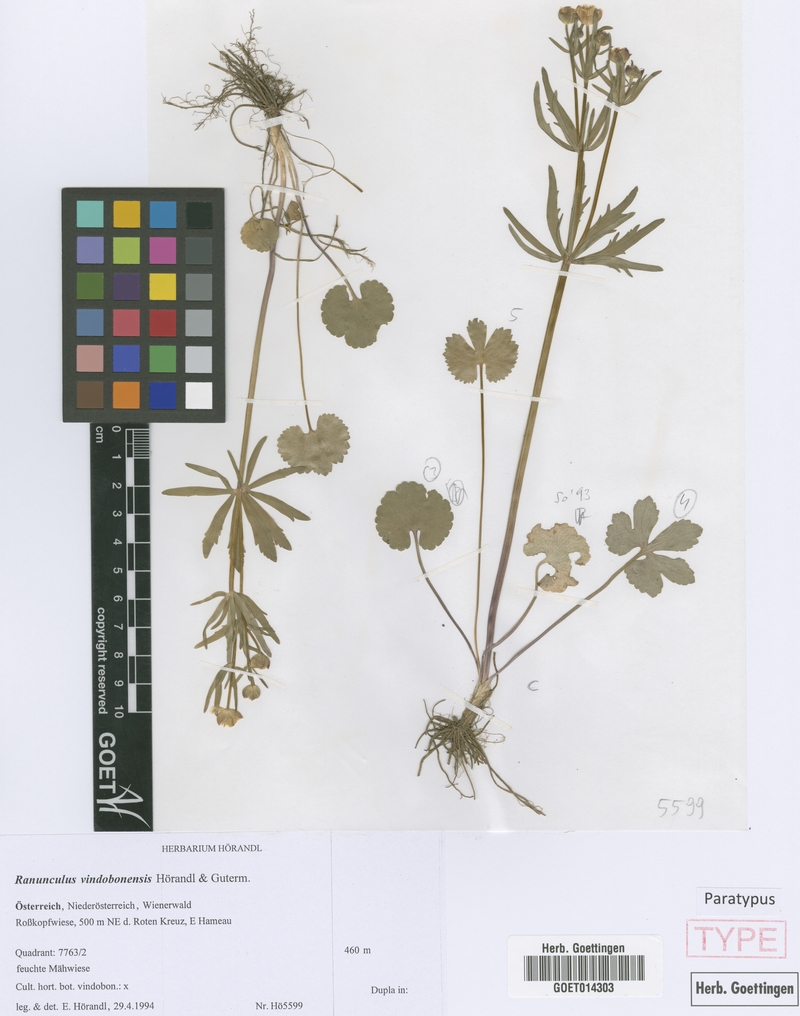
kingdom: Plantae
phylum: Tracheophyta
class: Magnoliopsida
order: Ranunculales
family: Ranunculaceae
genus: Ranunculus
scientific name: Ranunculus vindobonensis
